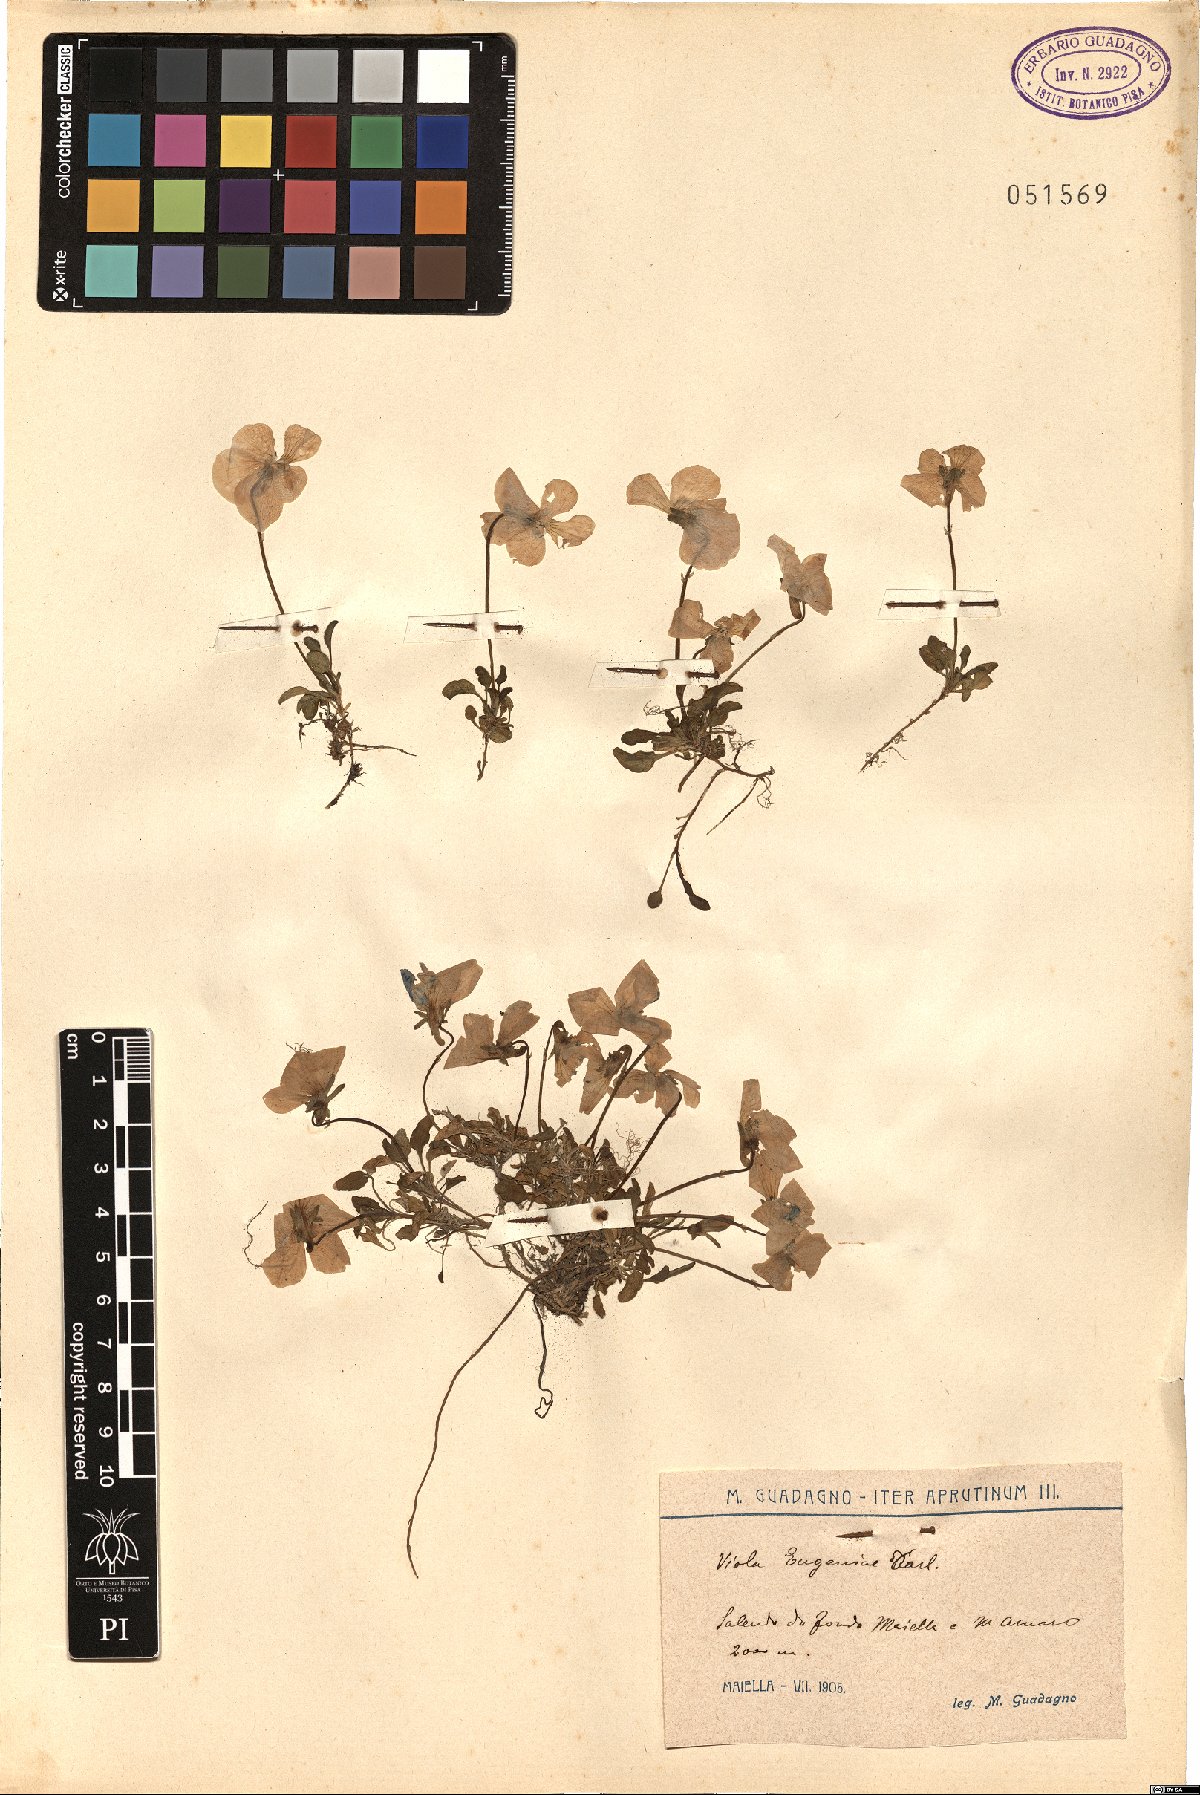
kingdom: Plantae
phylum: Tracheophyta
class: Magnoliopsida
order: Malpighiales
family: Violaceae
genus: Viola
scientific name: Viola eugeniae
